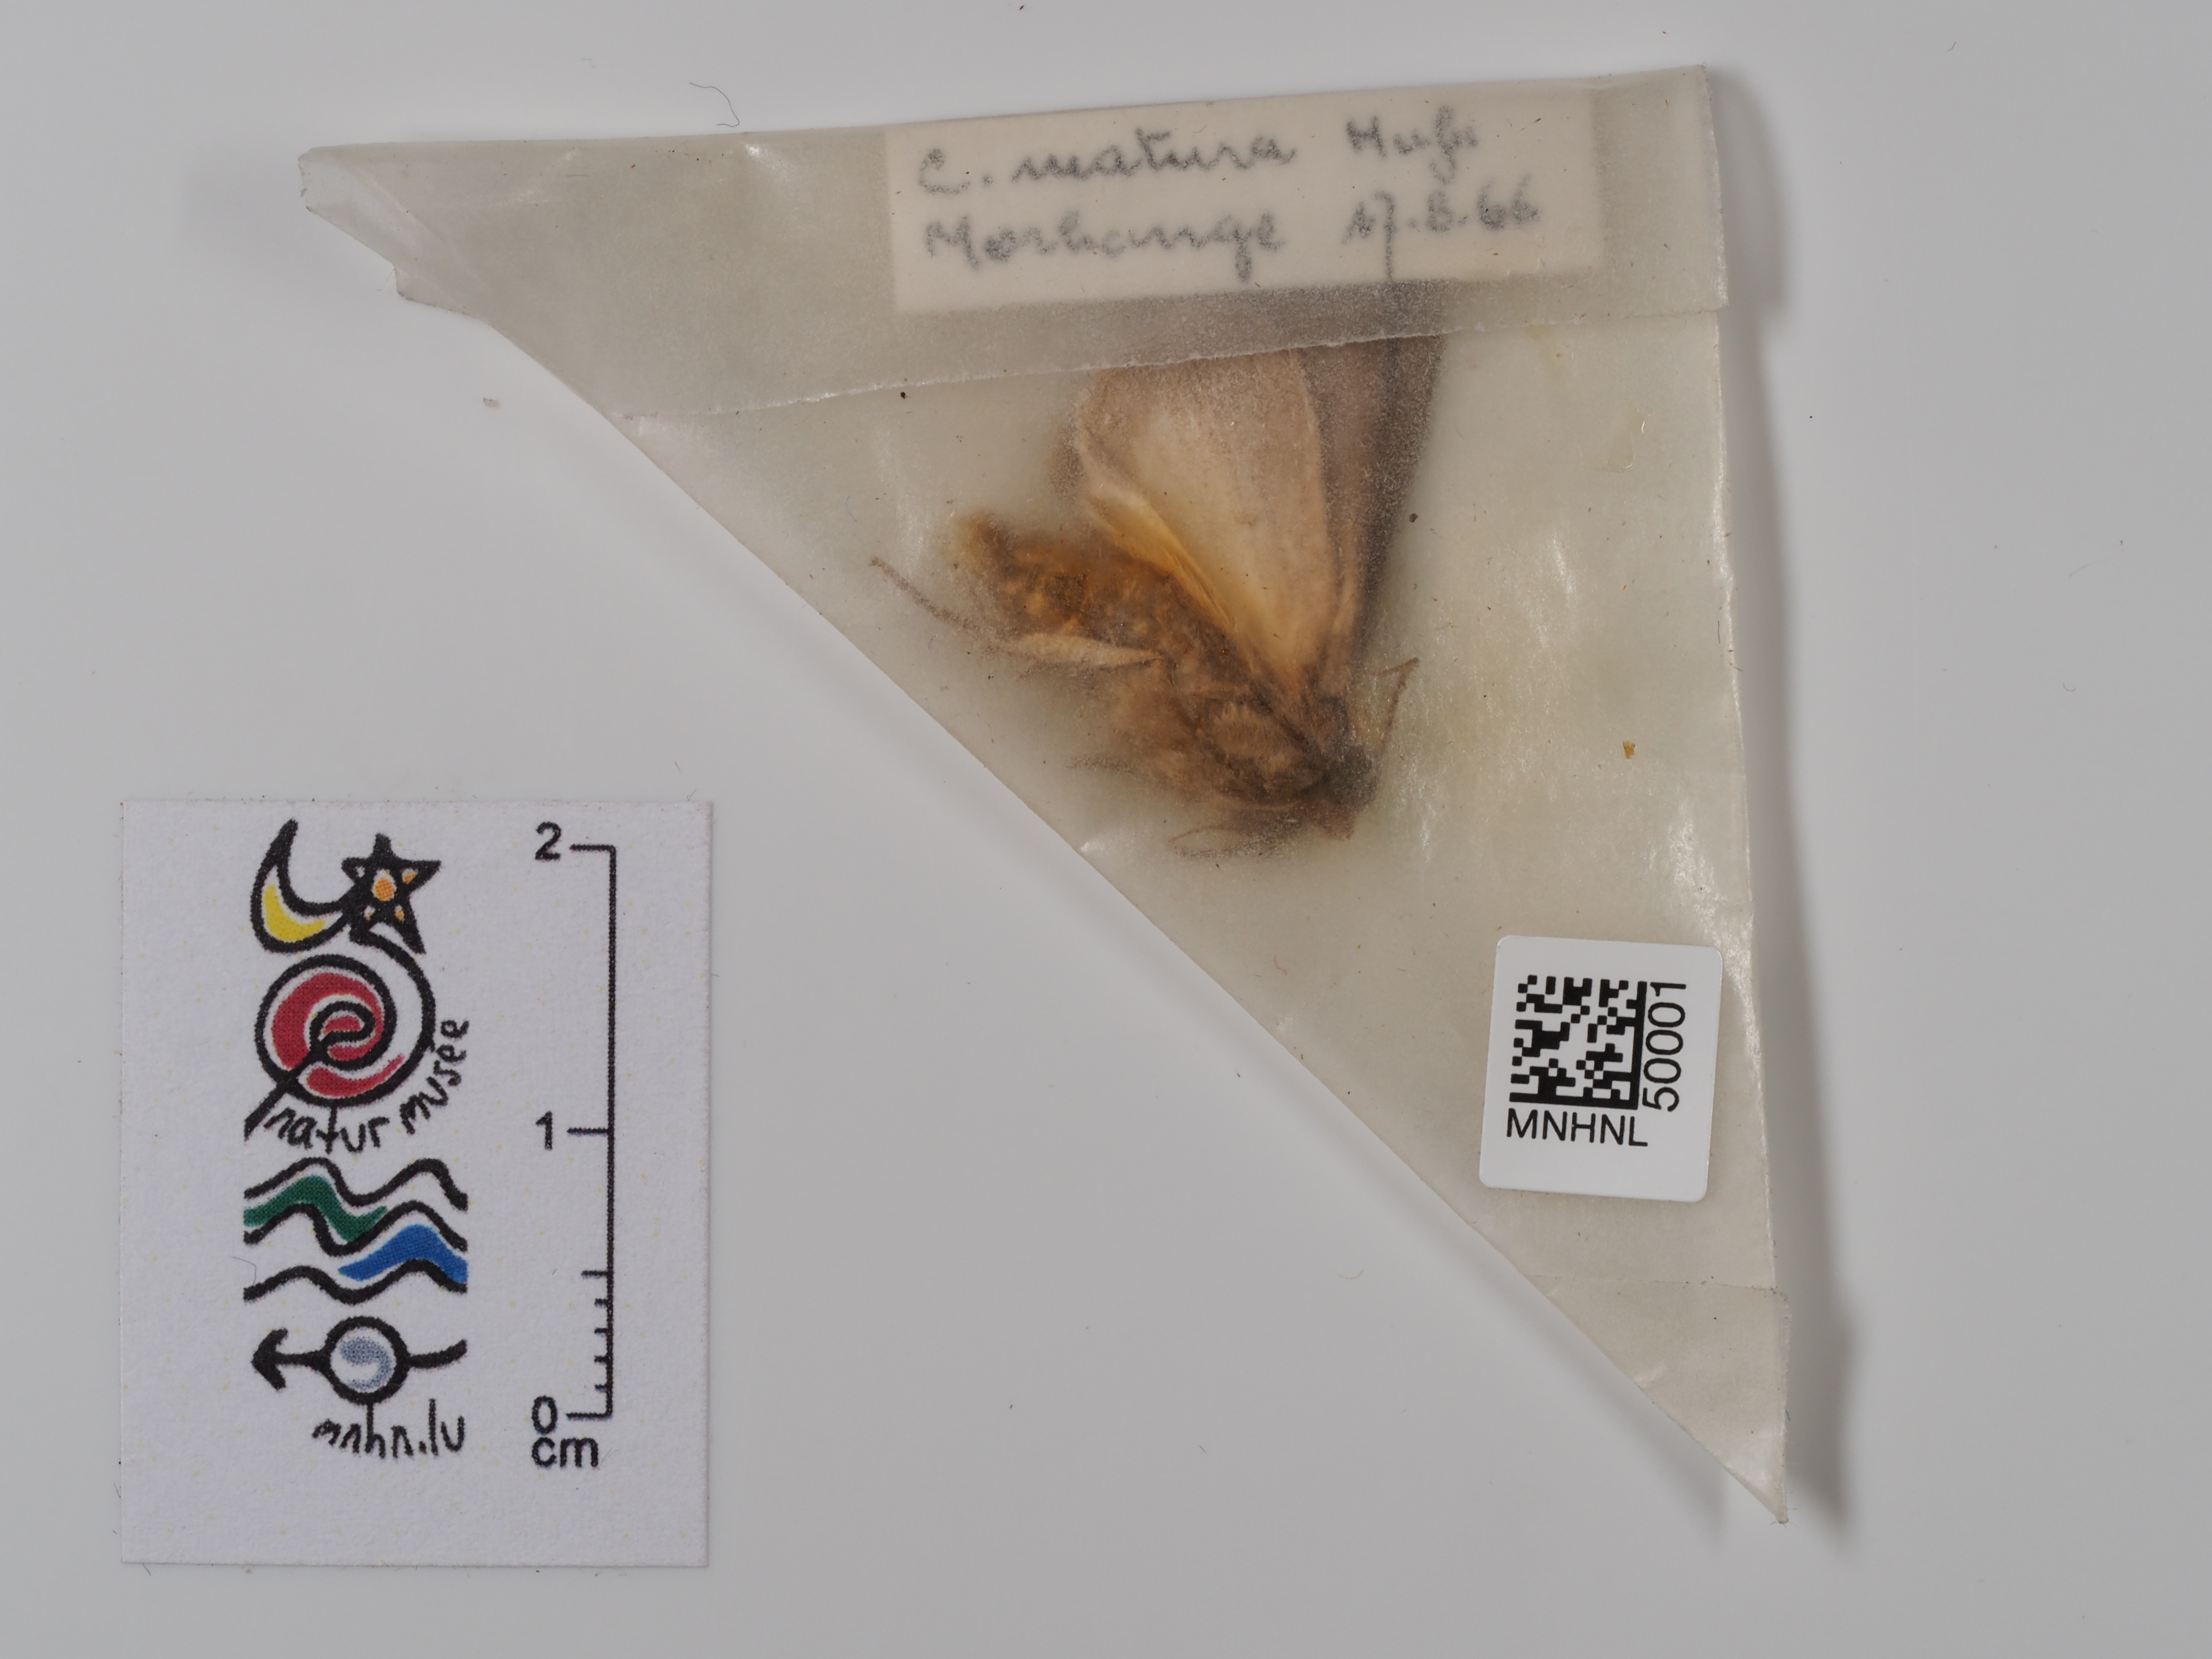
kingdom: Animalia
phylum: Arthropoda
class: Insecta
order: Lepidoptera
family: Noctuidae
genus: Thalpophila
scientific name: Thalpophila matura
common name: Straw underwing
